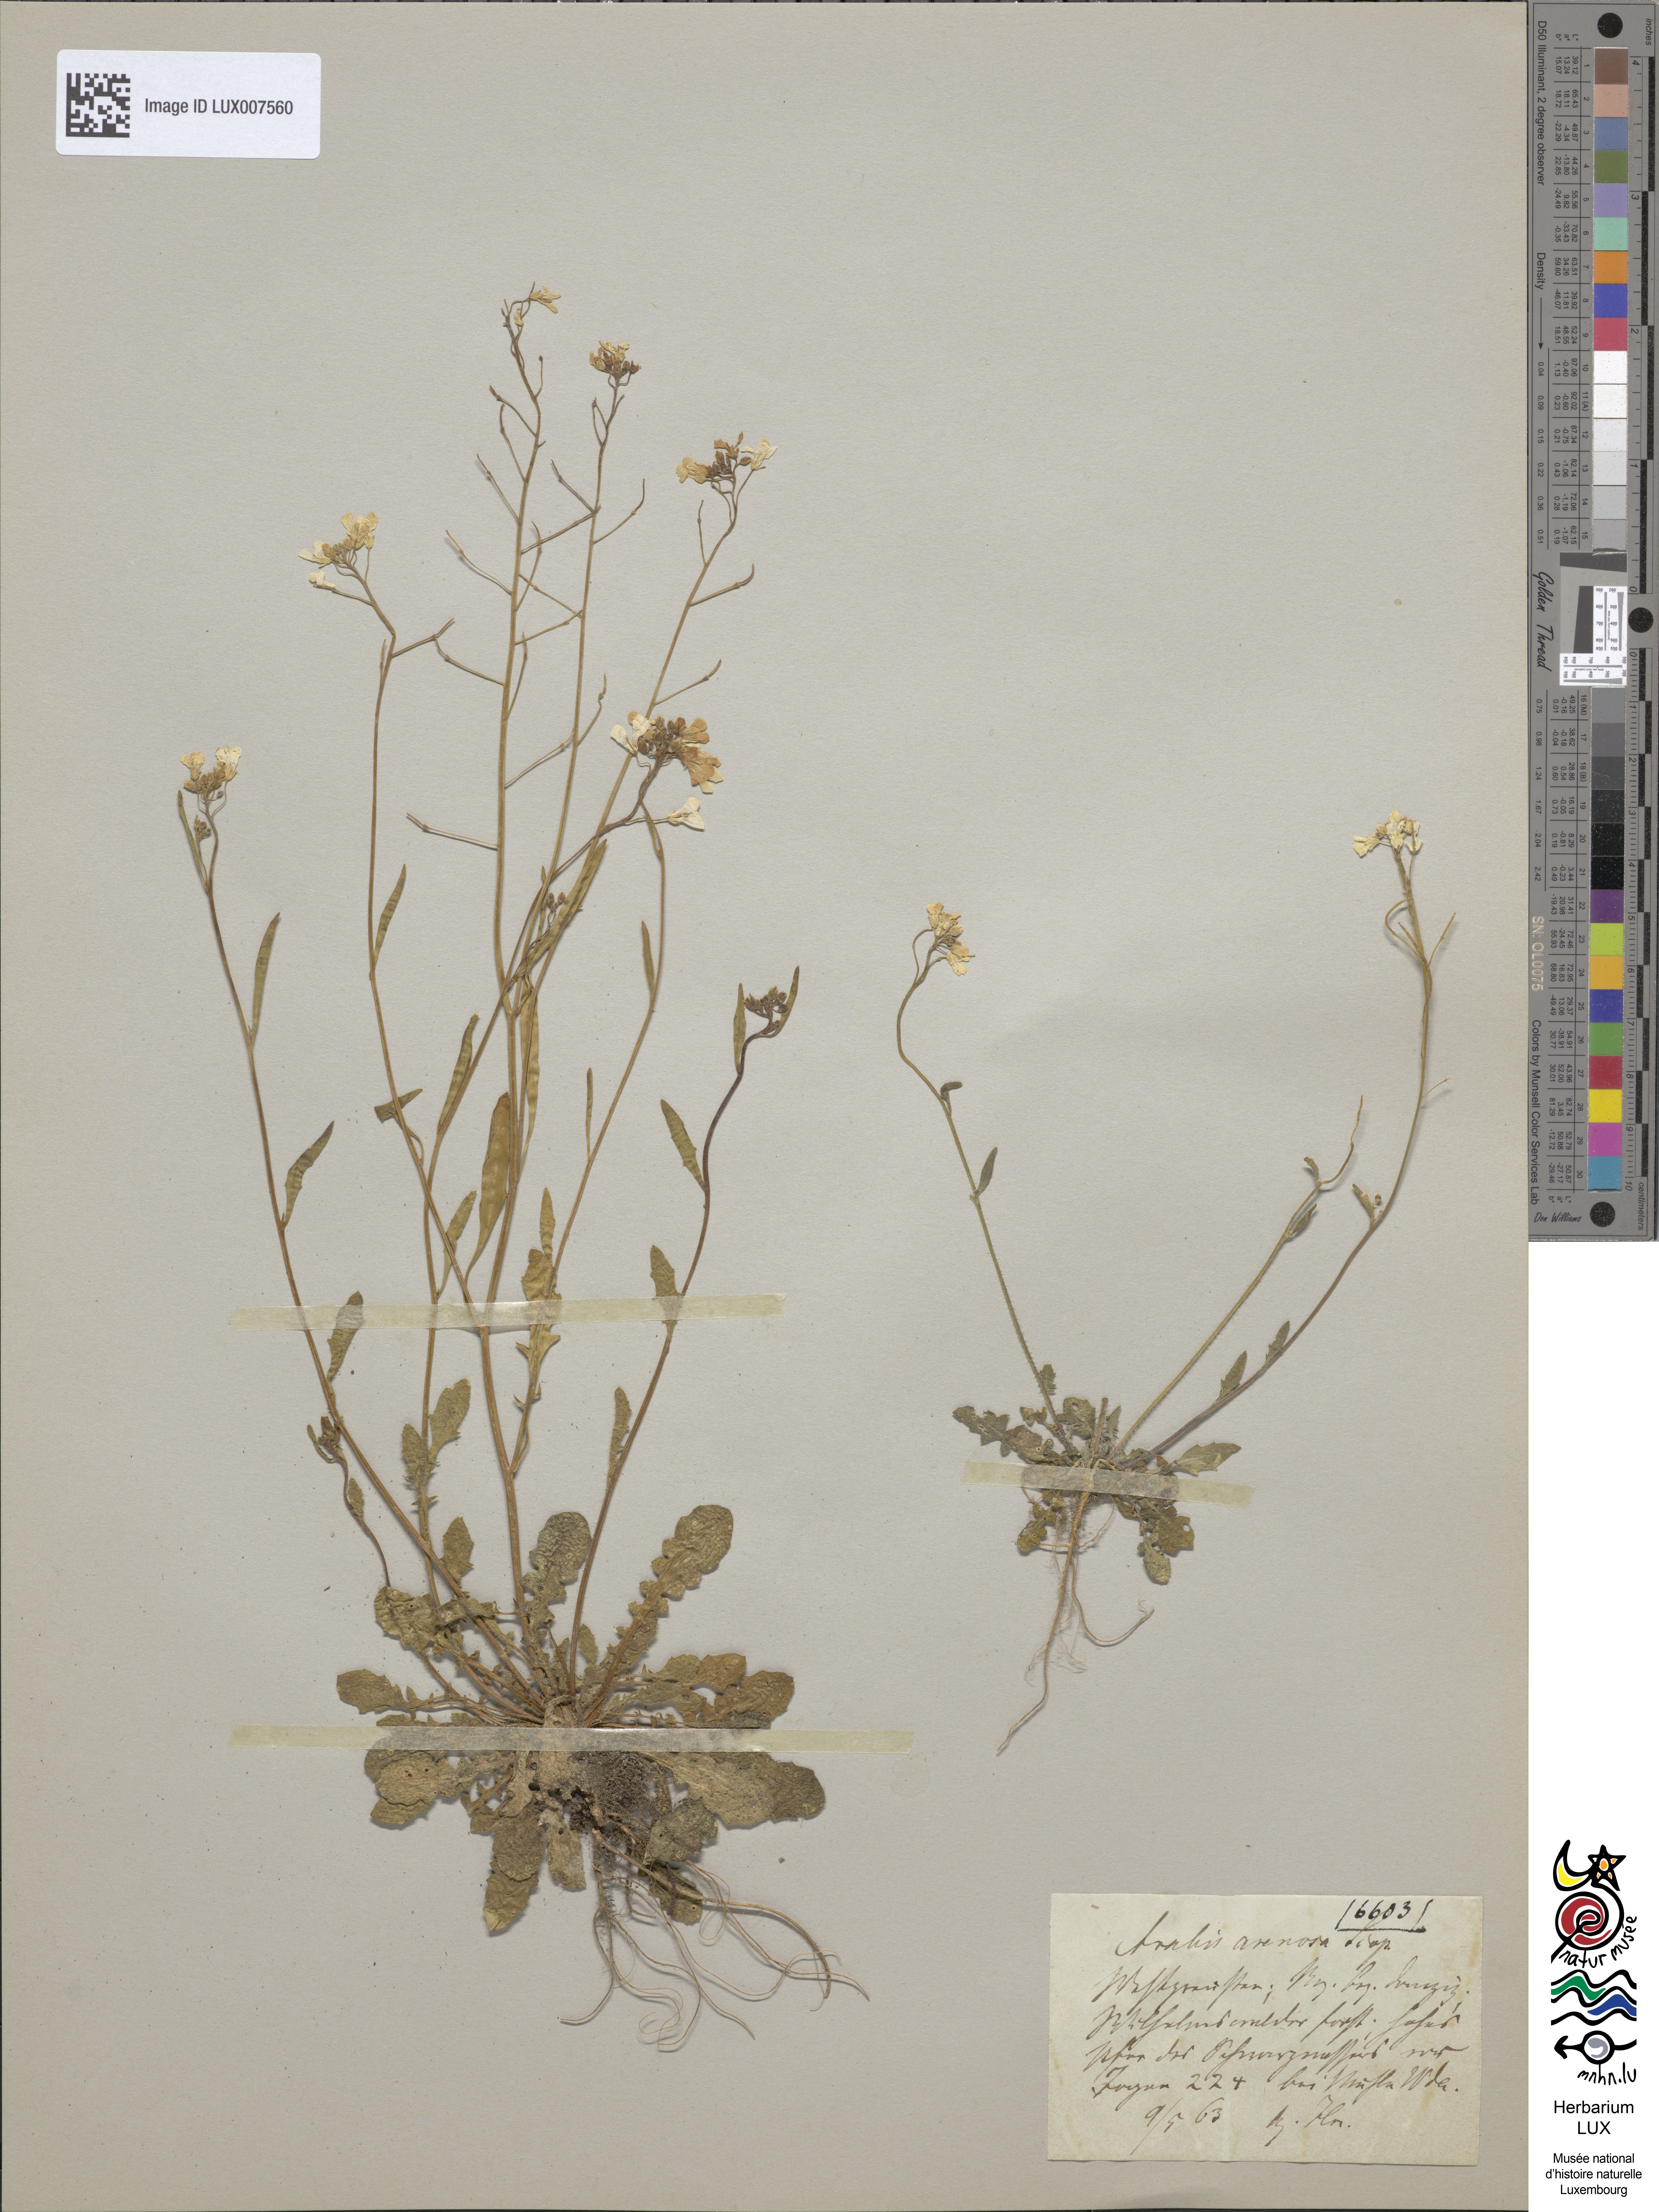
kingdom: Plantae
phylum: Tracheophyta
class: Magnoliopsida
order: Brassicales
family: Brassicaceae
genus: Arabidopsis
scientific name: Arabidopsis arenosa
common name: Sand rock-cress
